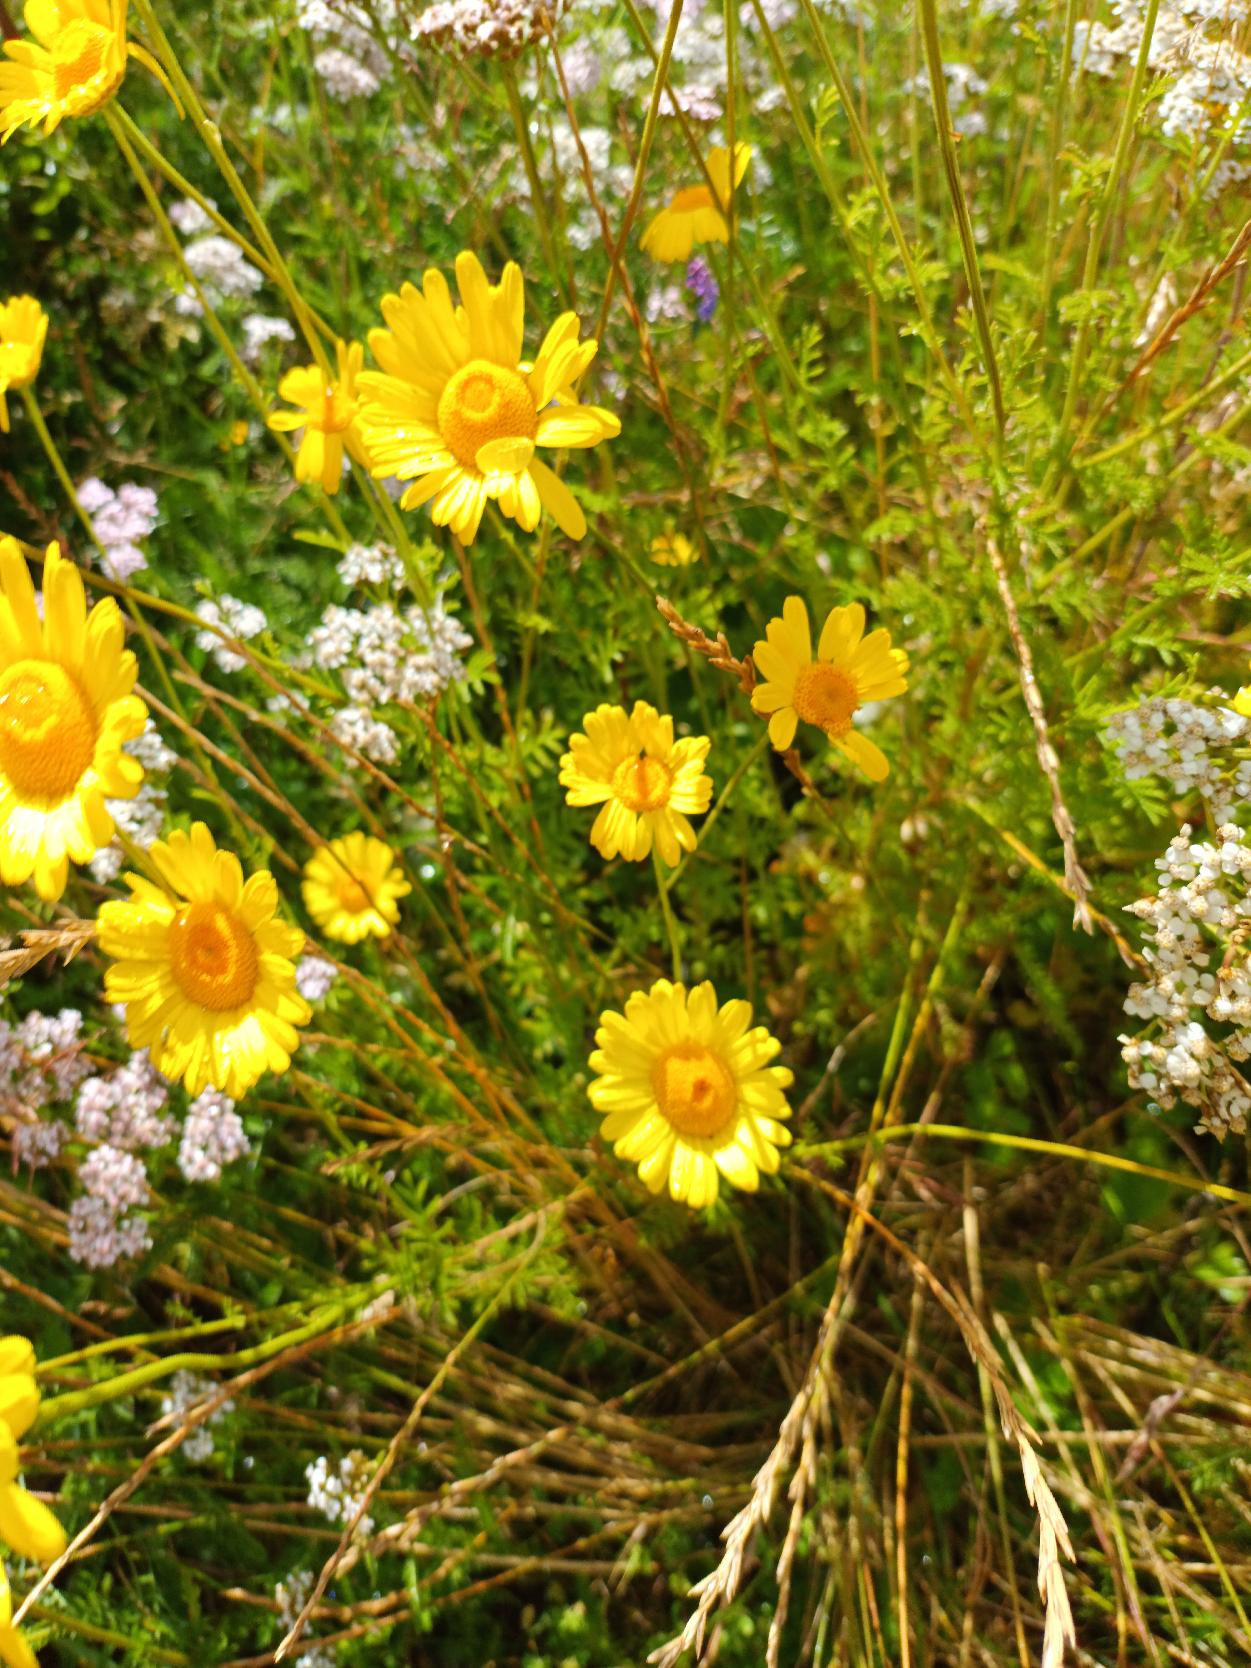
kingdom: Plantae
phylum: Tracheophyta
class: Magnoliopsida
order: Asterales
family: Asteraceae
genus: Cota
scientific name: Cota tinctoria
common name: Farve-gåseurt
